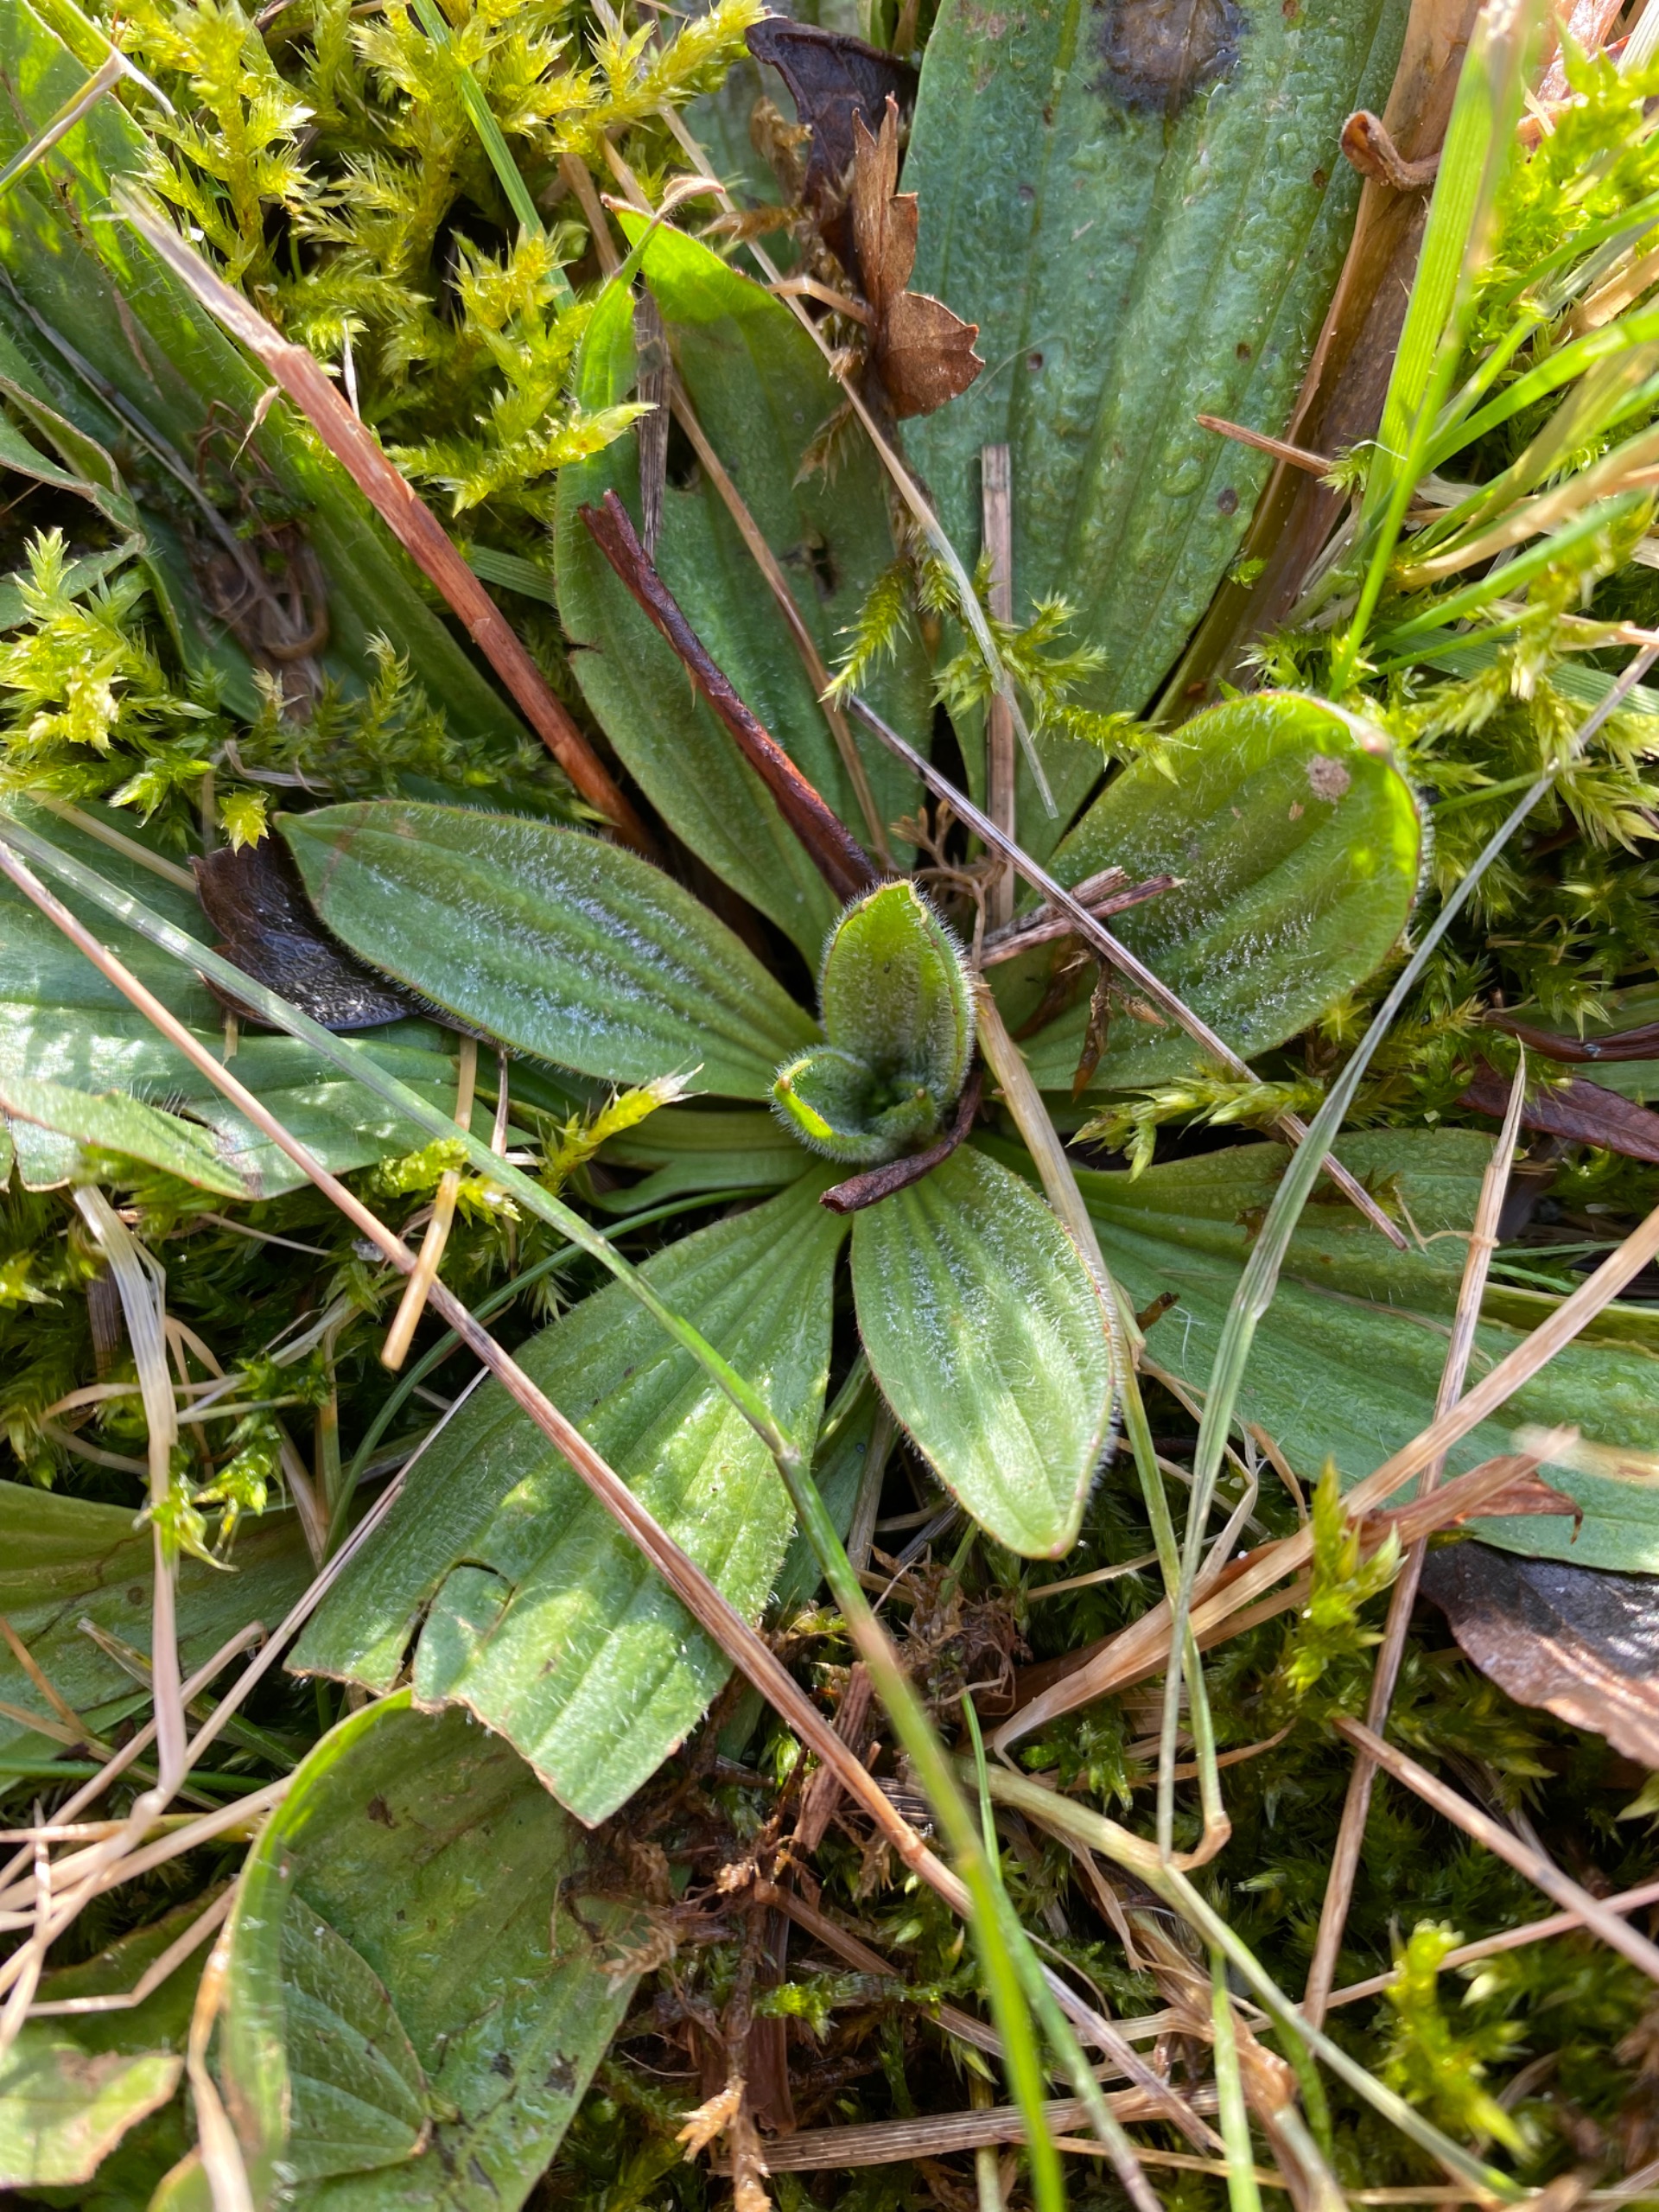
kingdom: Plantae
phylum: Tracheophyta
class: Magnoliopsida
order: Lamiales
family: Plantaginaceae
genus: Plantago
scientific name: Plantago lanceolata
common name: Lancet-vejbred
